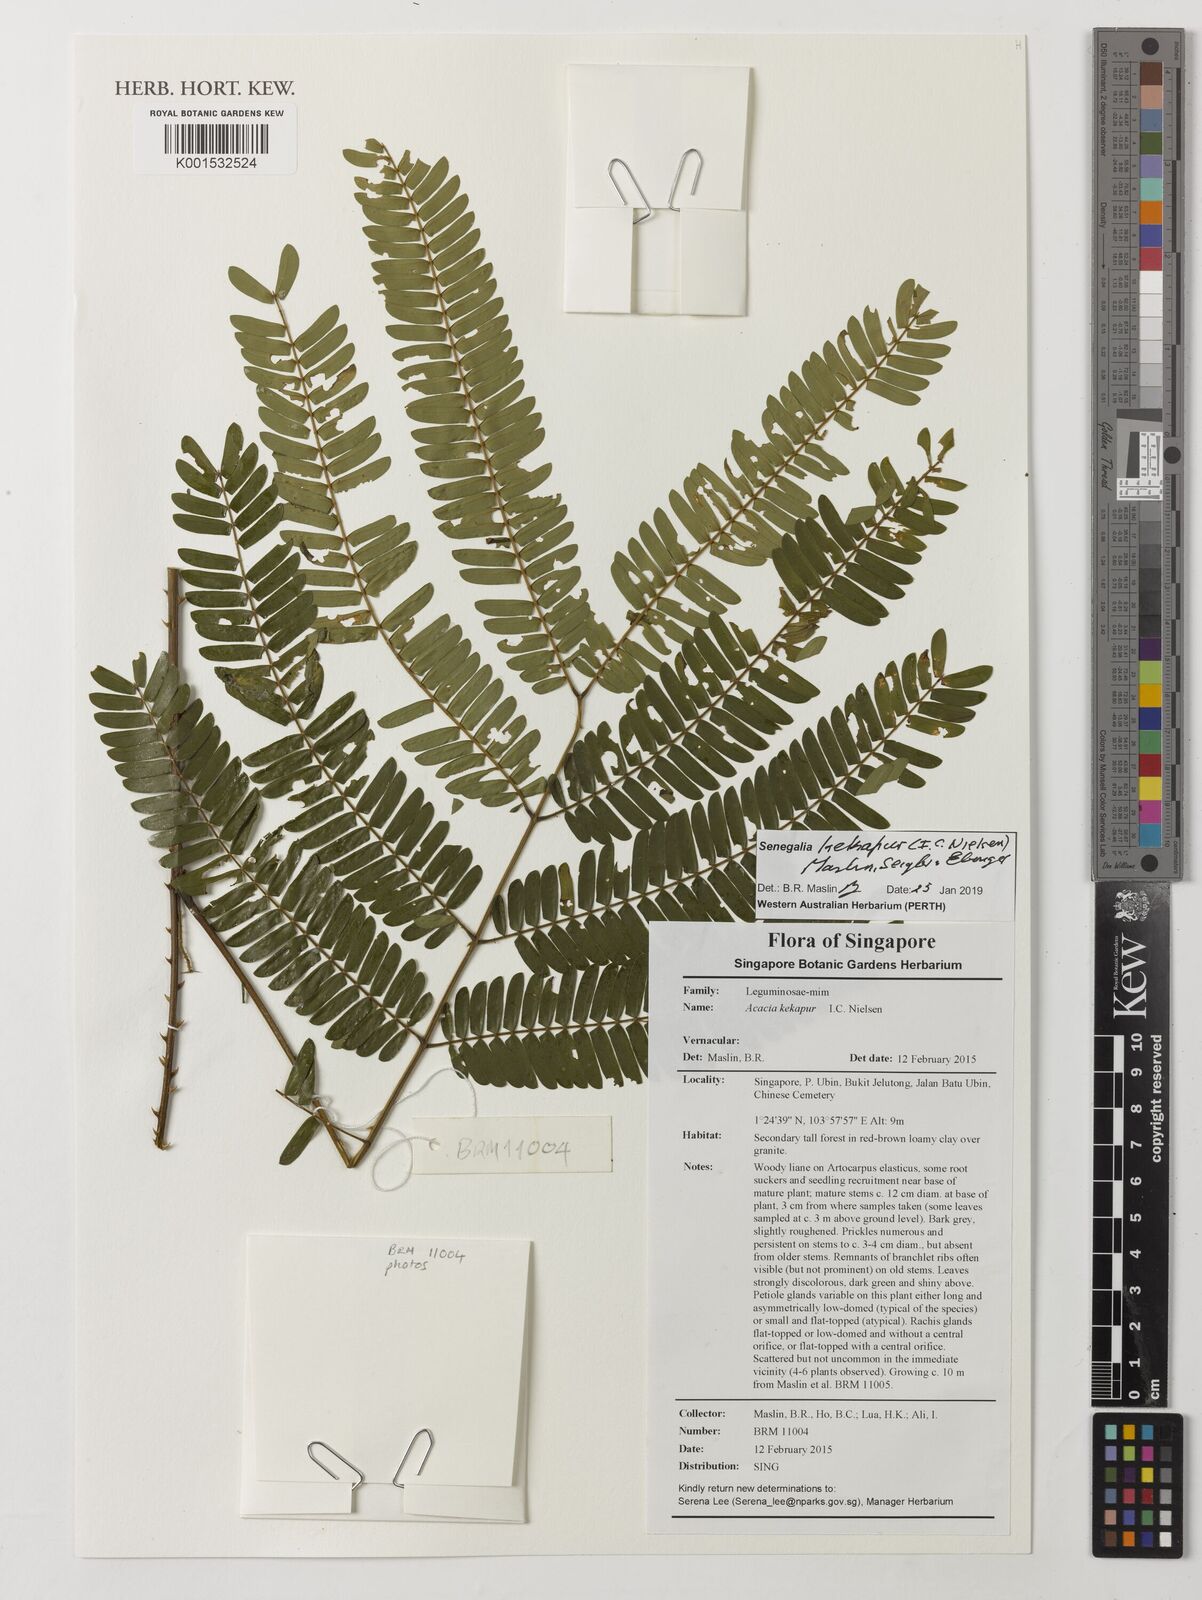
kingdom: Plantae
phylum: Tracheophyta
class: Magnoliopsida
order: Fabales
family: Fabaceae
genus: Senegalia
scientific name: Senegalia kekapur
